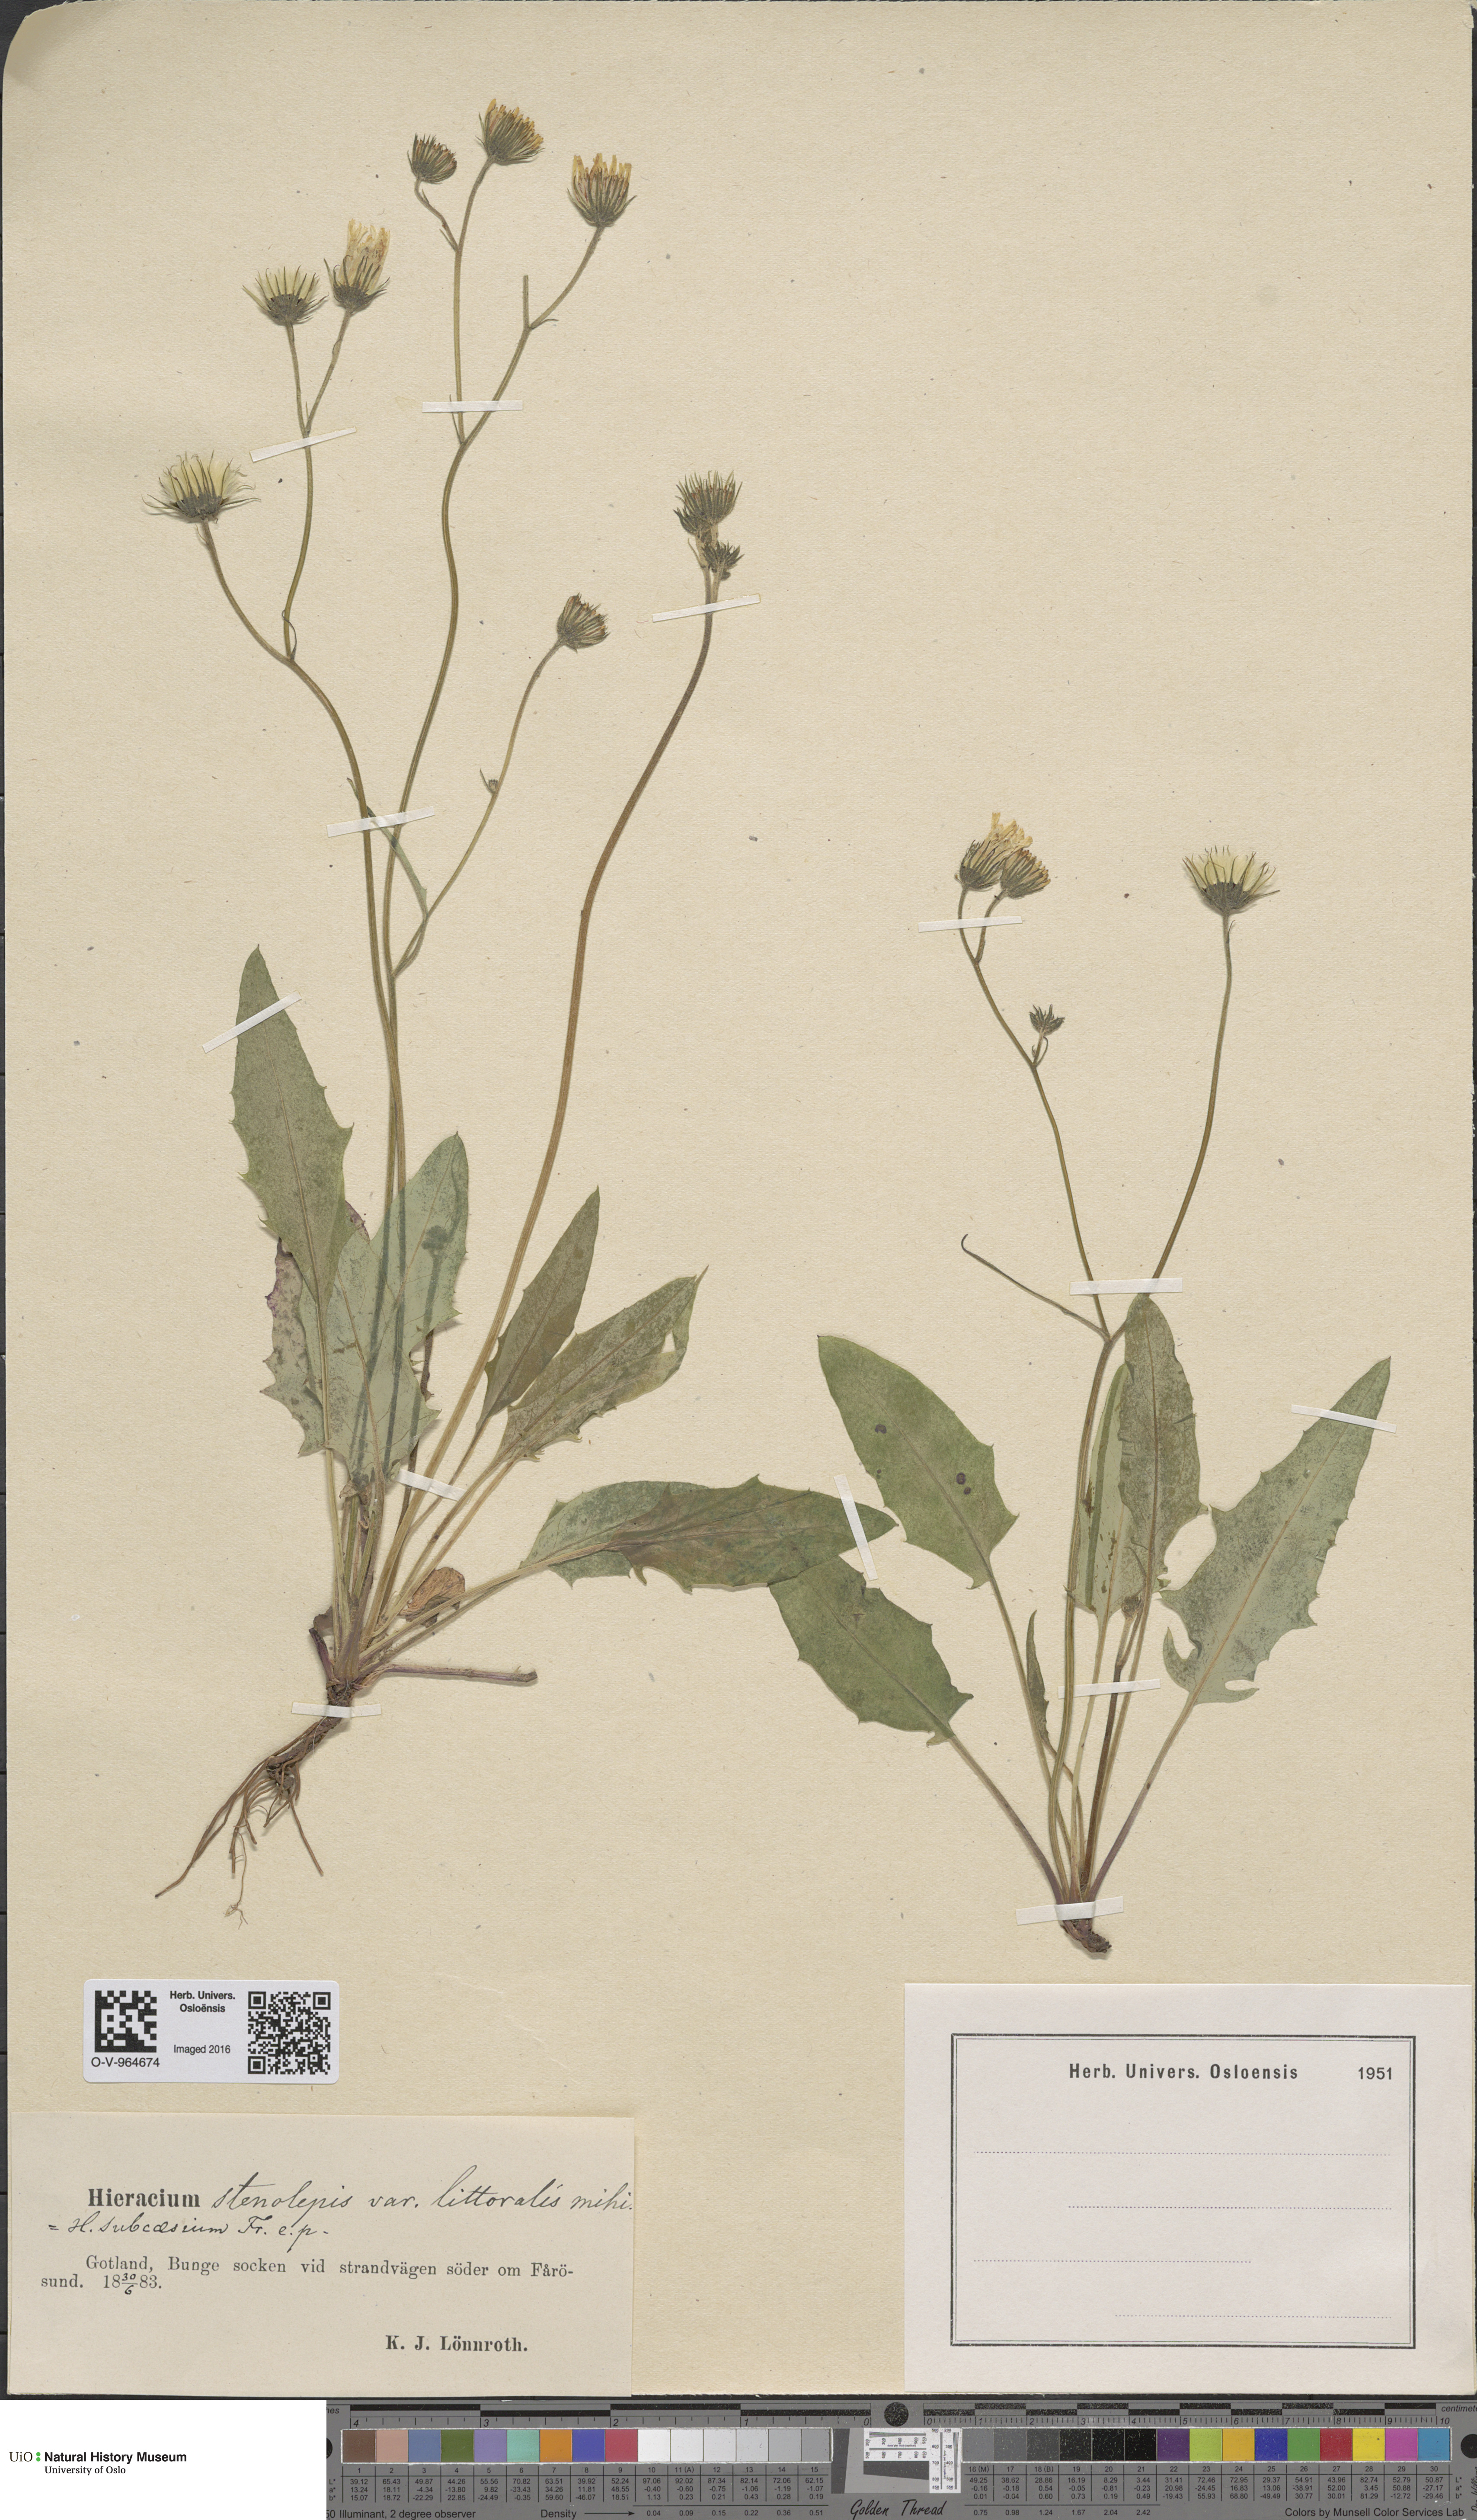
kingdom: Plantae
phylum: Tracheophyta
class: Magnoliopsida
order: Asterales
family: Asteraceae
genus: Hieracium
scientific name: Hieracium bifidum
